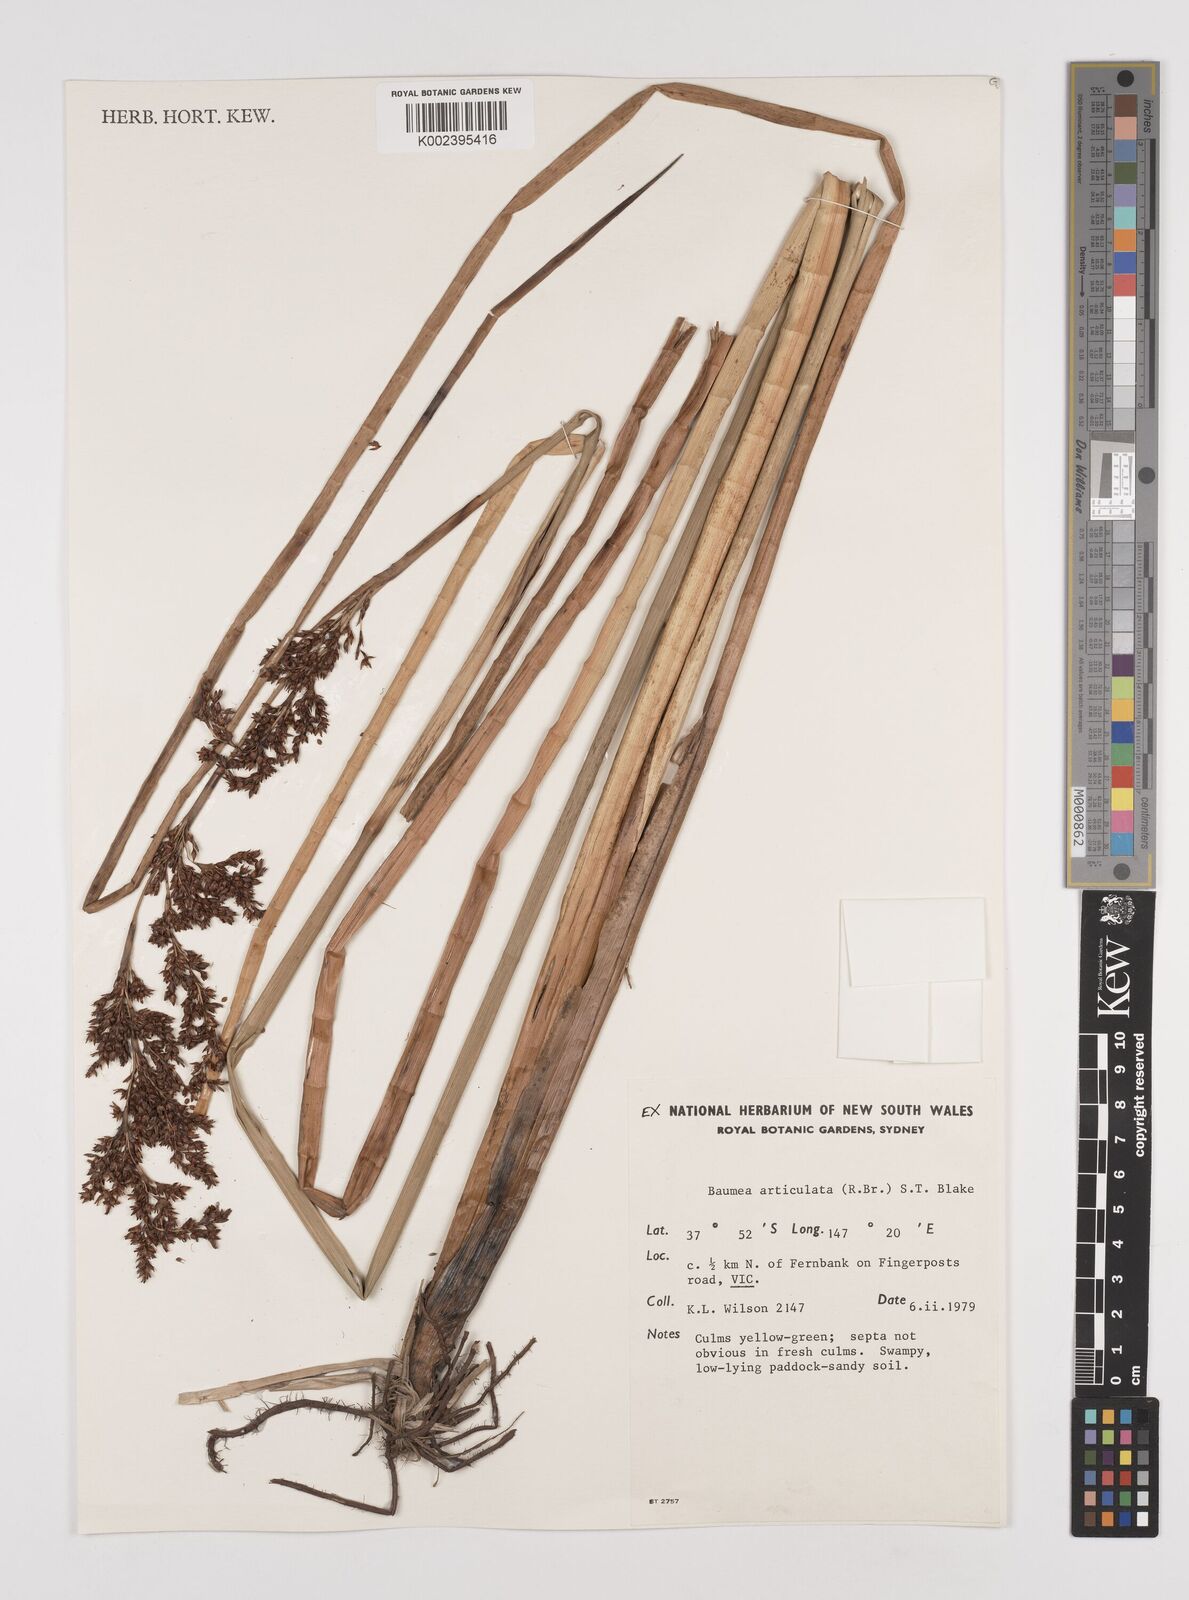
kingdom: Plantae
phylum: Tracheophyta
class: Liliopsida
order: Poales
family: Cyperaceae
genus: Machaerina
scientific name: Machaerina articulata
